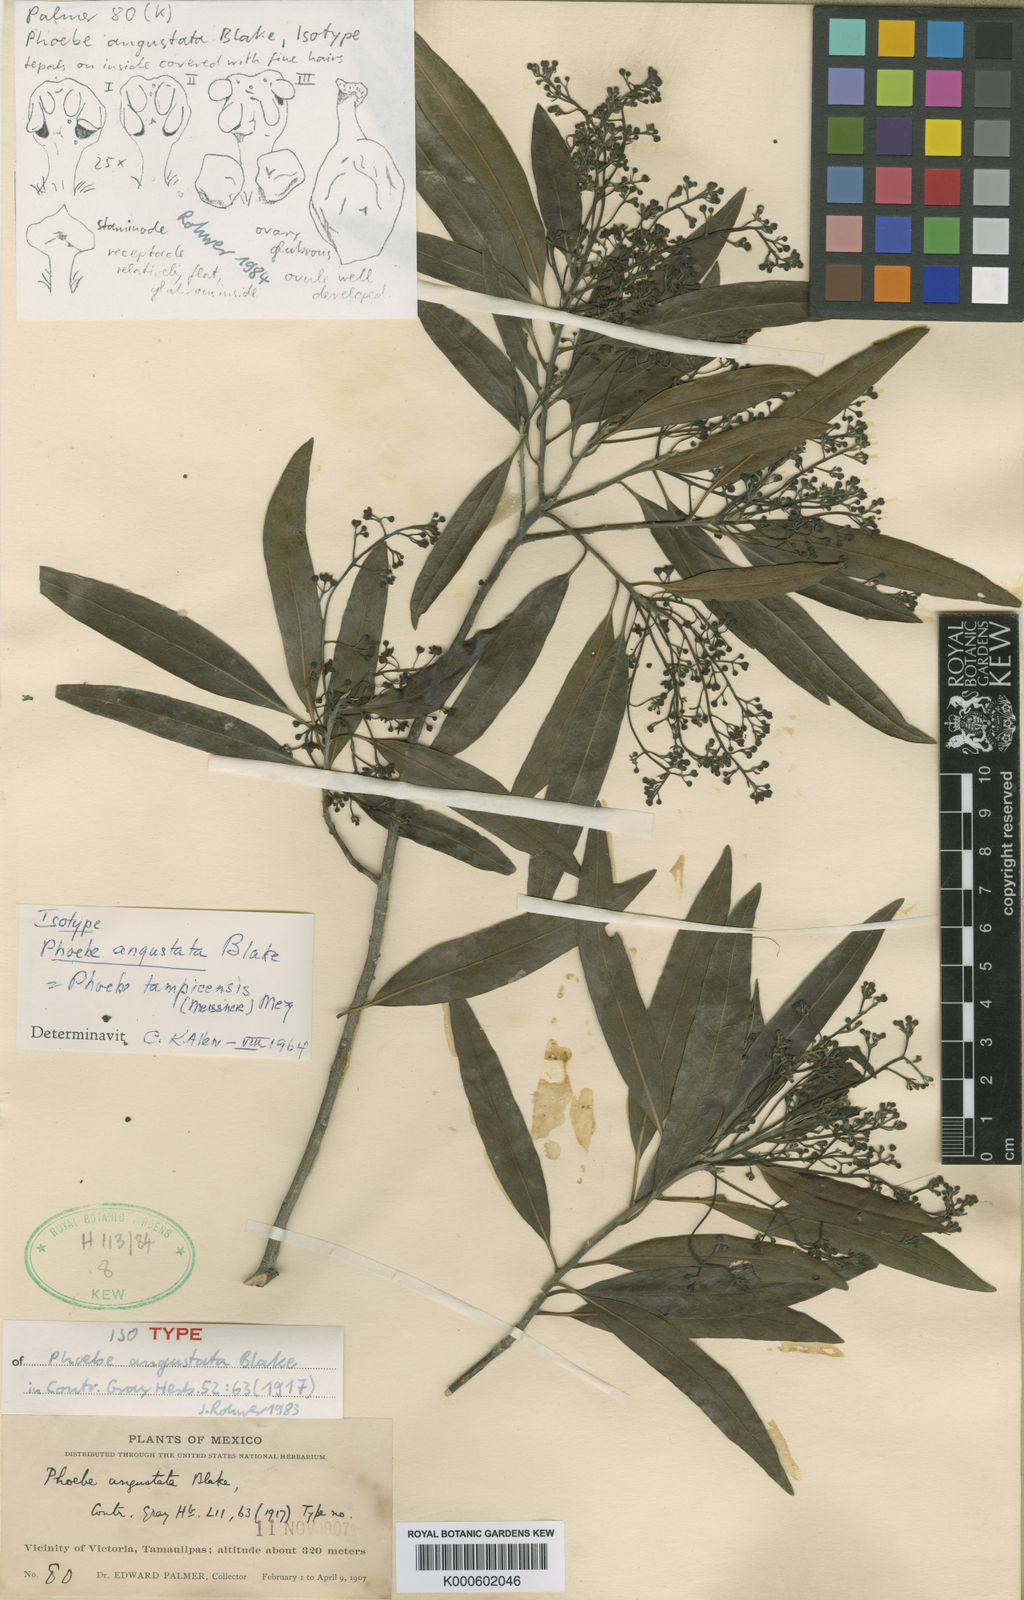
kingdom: Plantae
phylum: Tracheophyta
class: Magnoliopsida
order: Laurales
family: Lauraceae
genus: Ocotea
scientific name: Ocotea tampicensis
